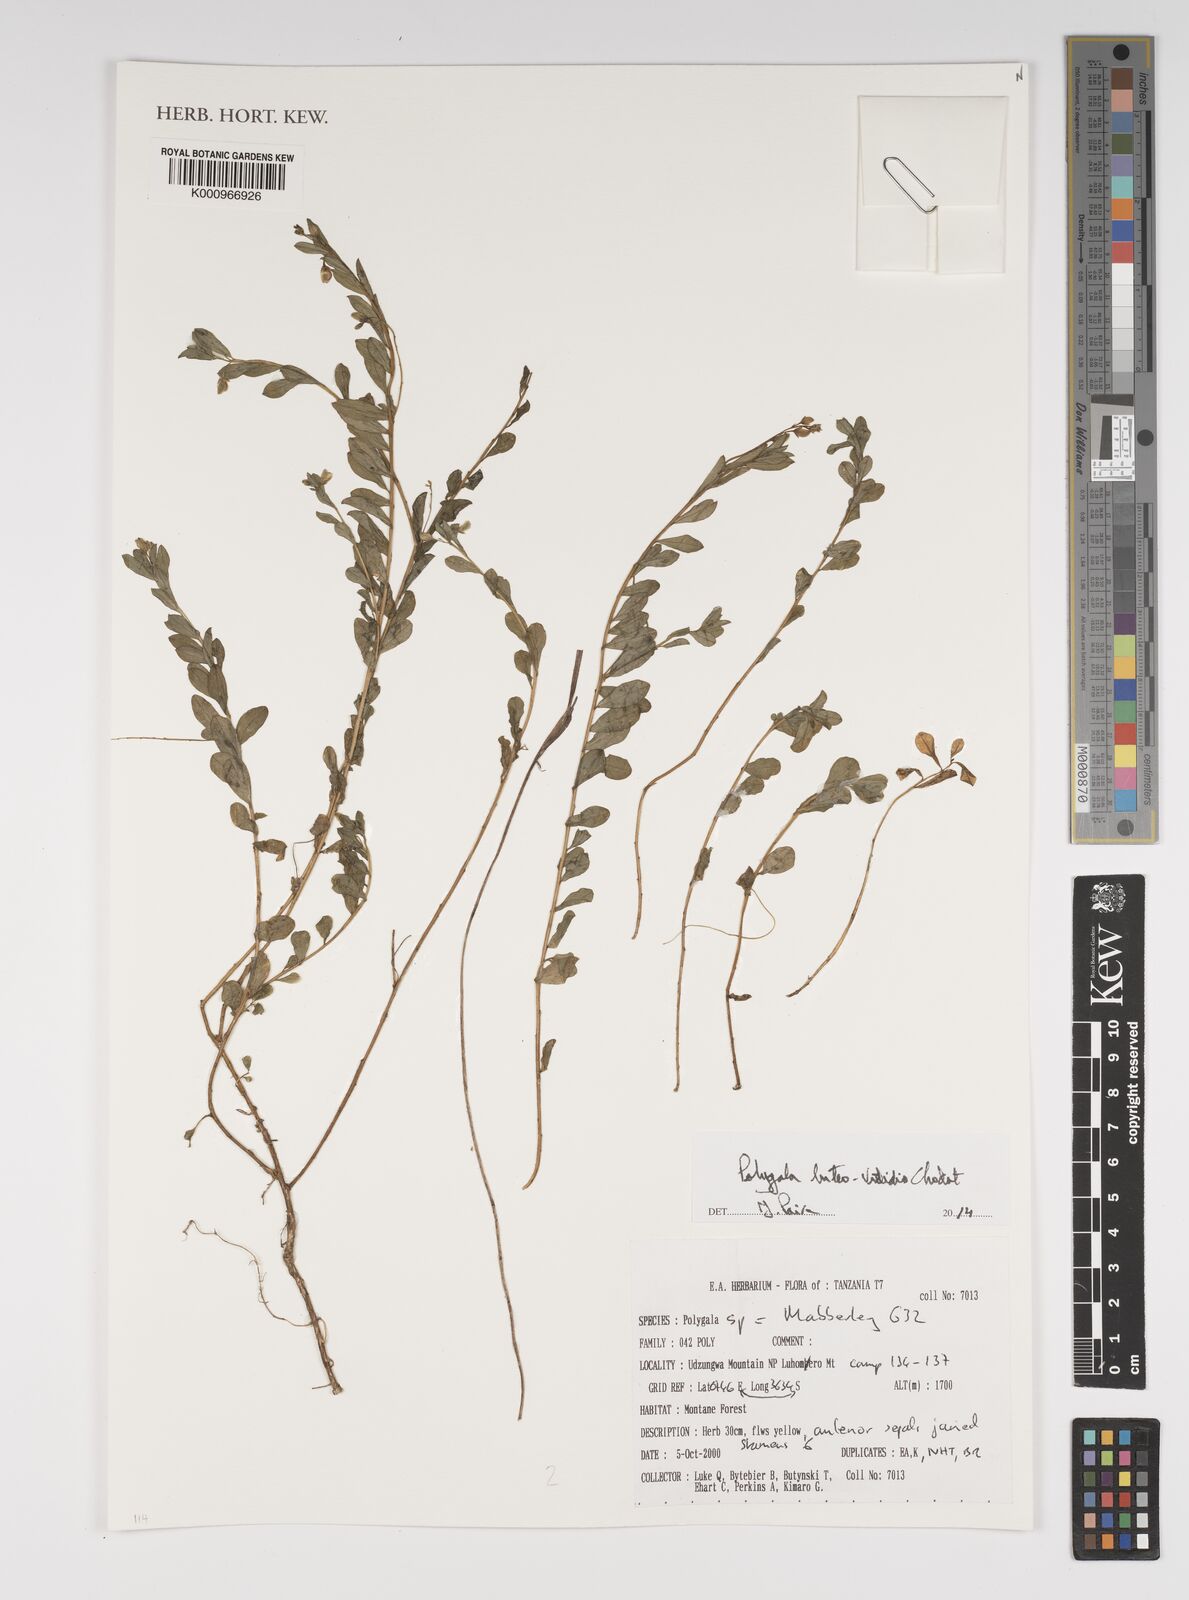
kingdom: Plantae
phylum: Tracheophyta
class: Magnoliopsida
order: Fabales
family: Polygalaceae
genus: Polygala
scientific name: Polygala luteoviridis
